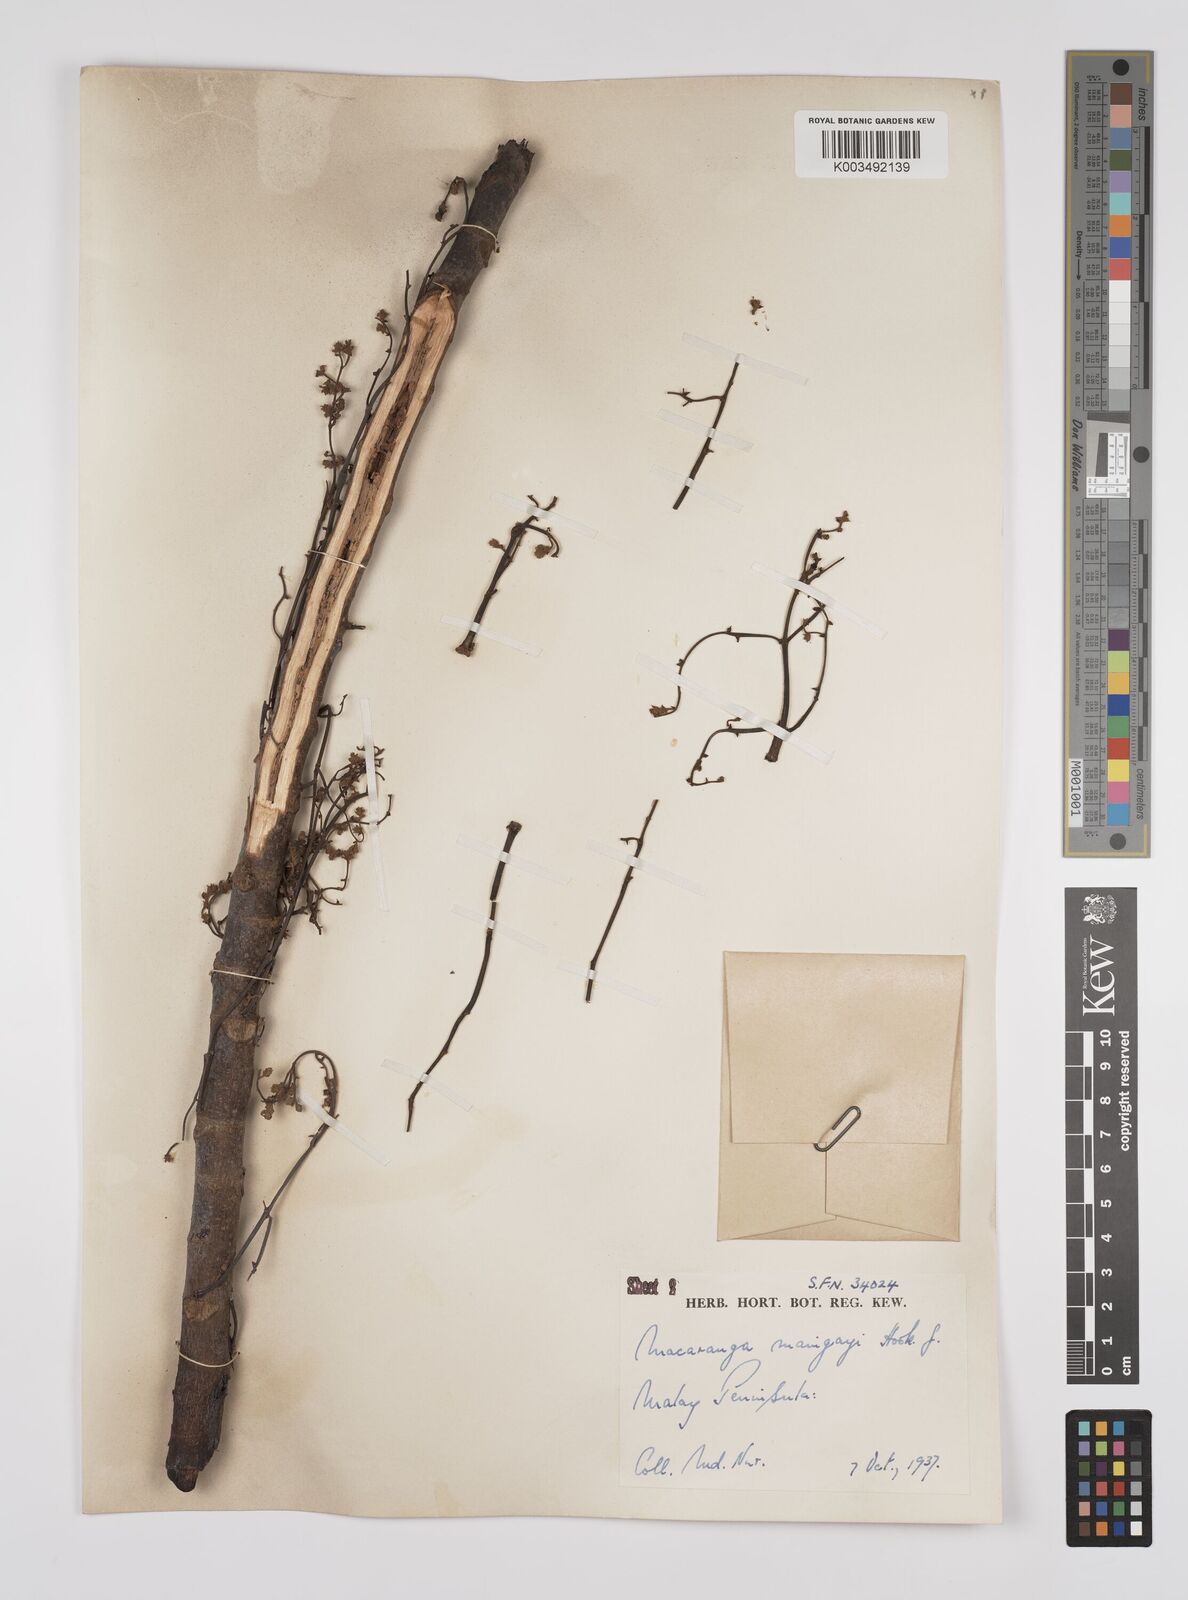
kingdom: Plantae
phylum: Tracheophyta
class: Magnoliopsida
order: Malpighiales
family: Euphorbiaceae
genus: Macaranga
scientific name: Macaranga pruinosa
